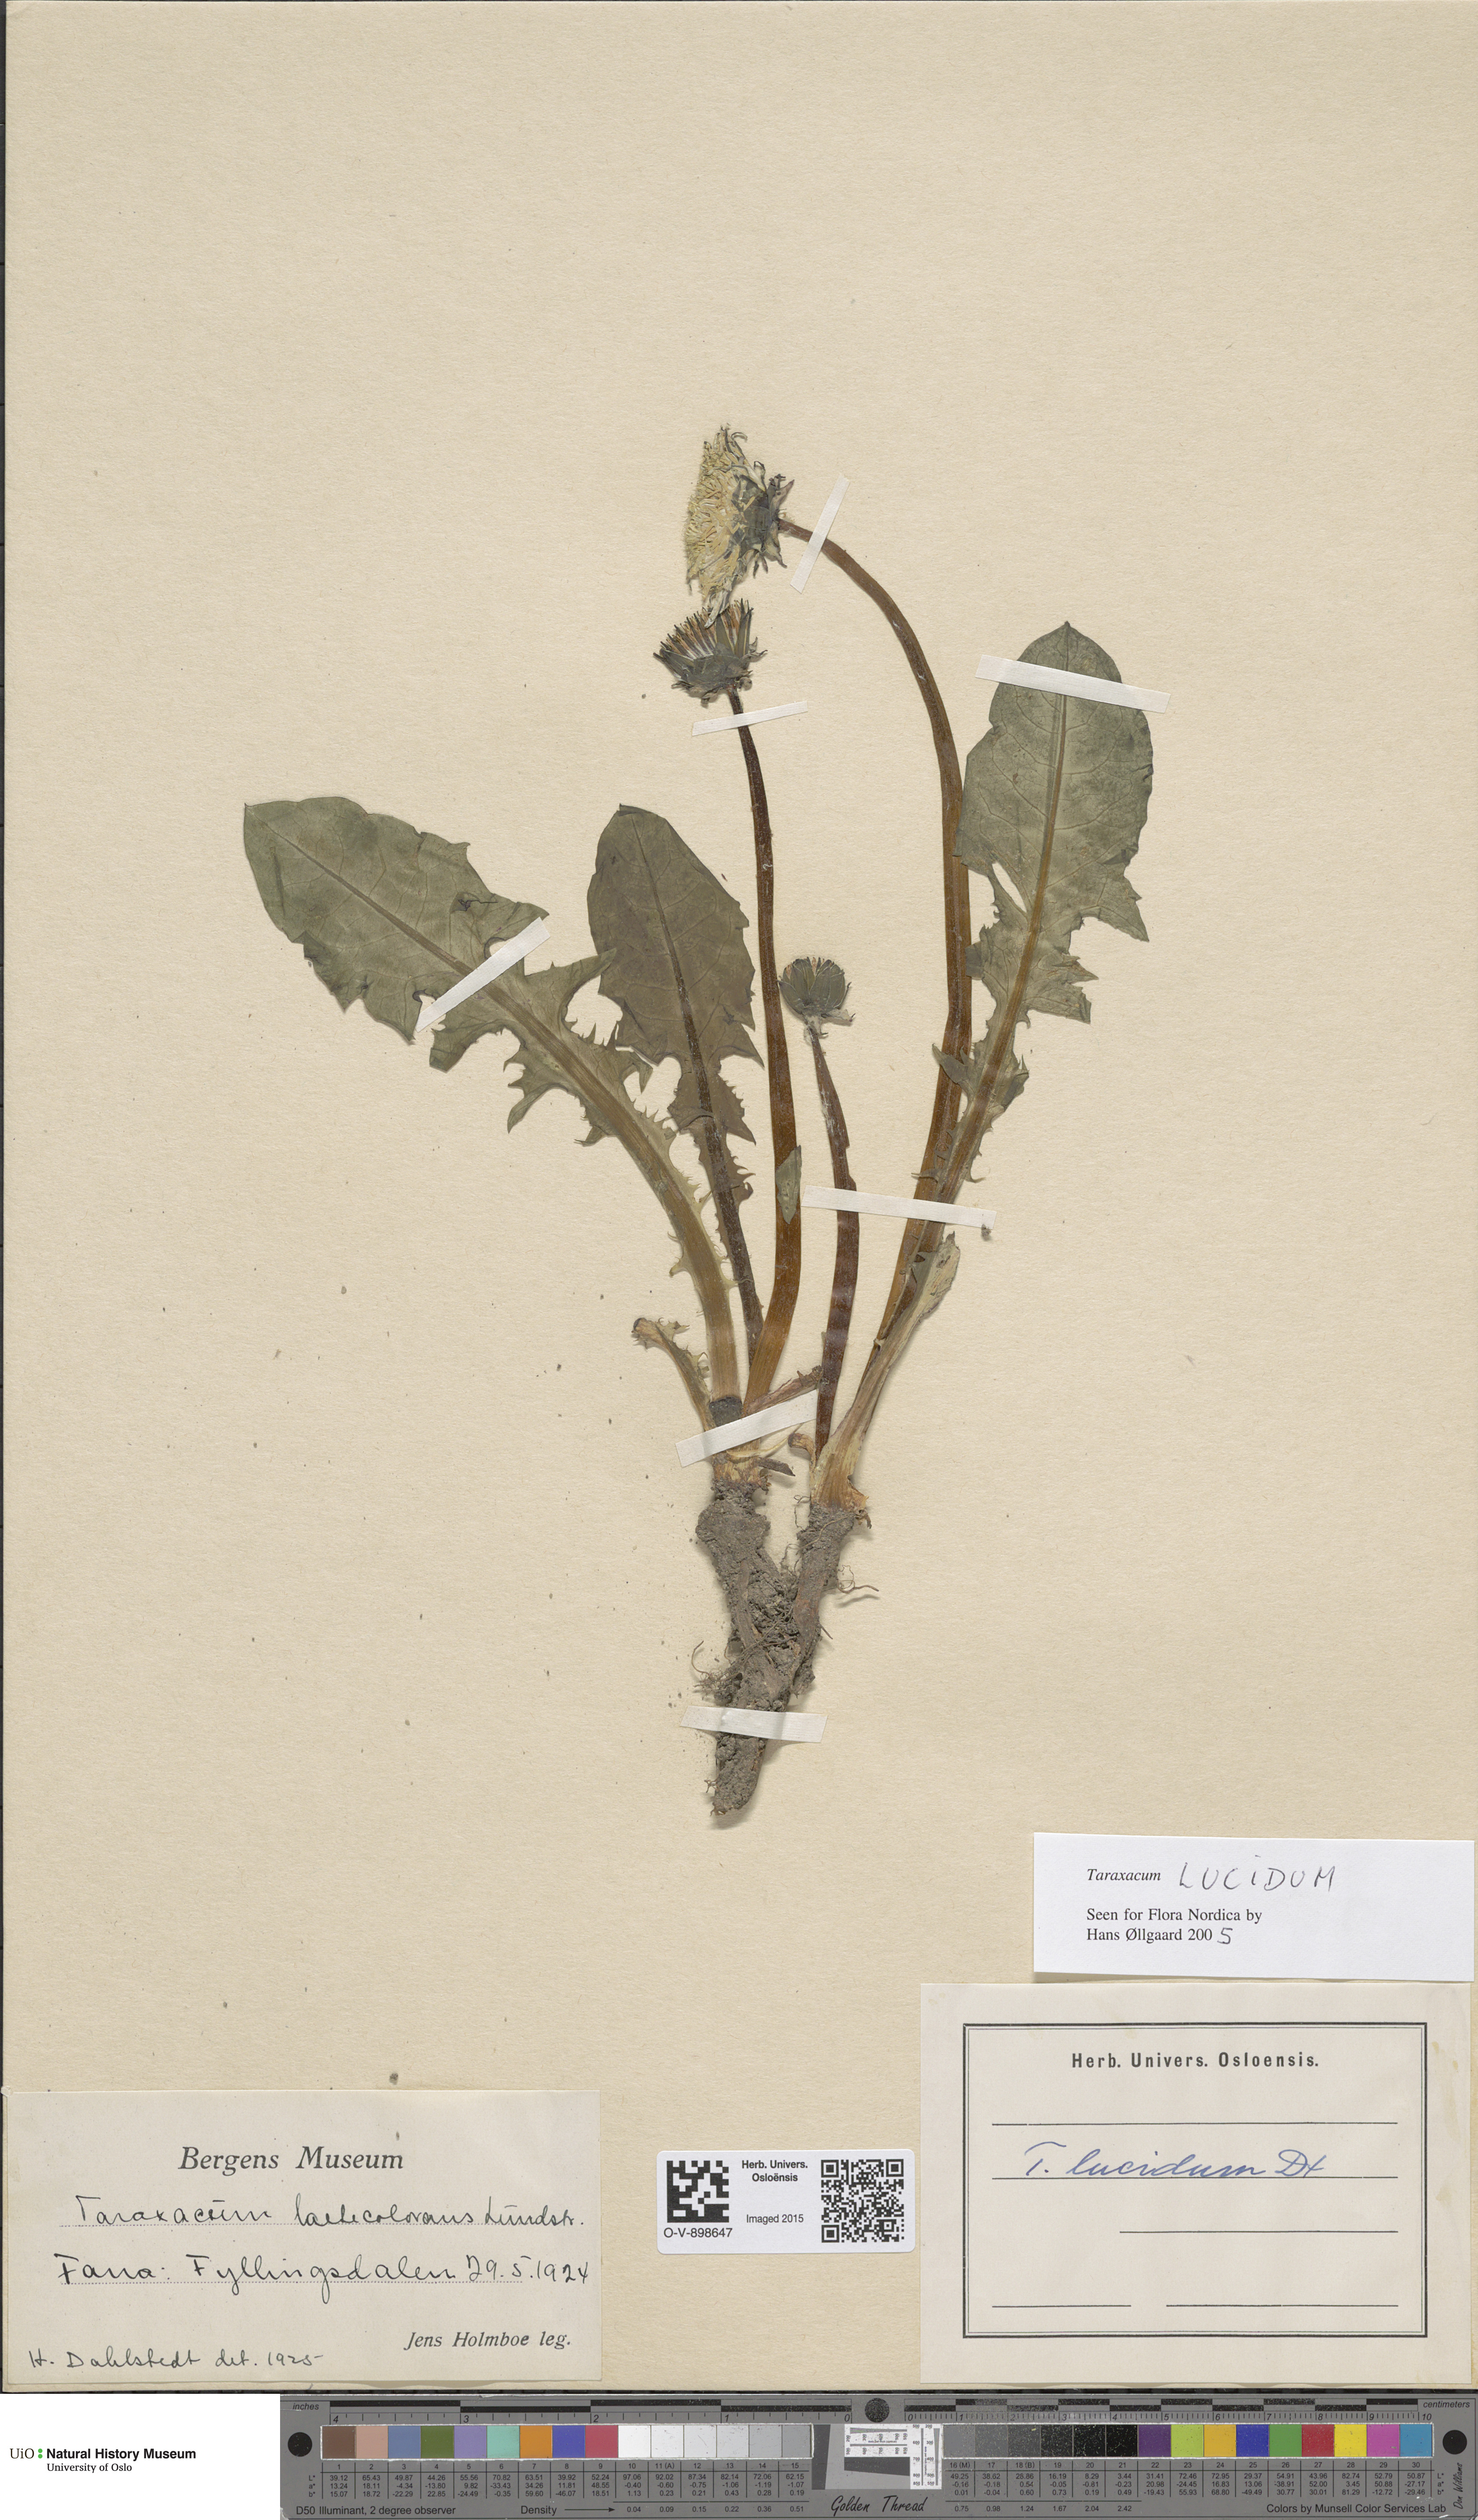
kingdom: Plantae
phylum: Tracheophyta
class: Magnoliopsida
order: Asterales
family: Asteraceae
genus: Taraxacum
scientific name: Taraxacum lucidum
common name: Large-bracted dandelion
